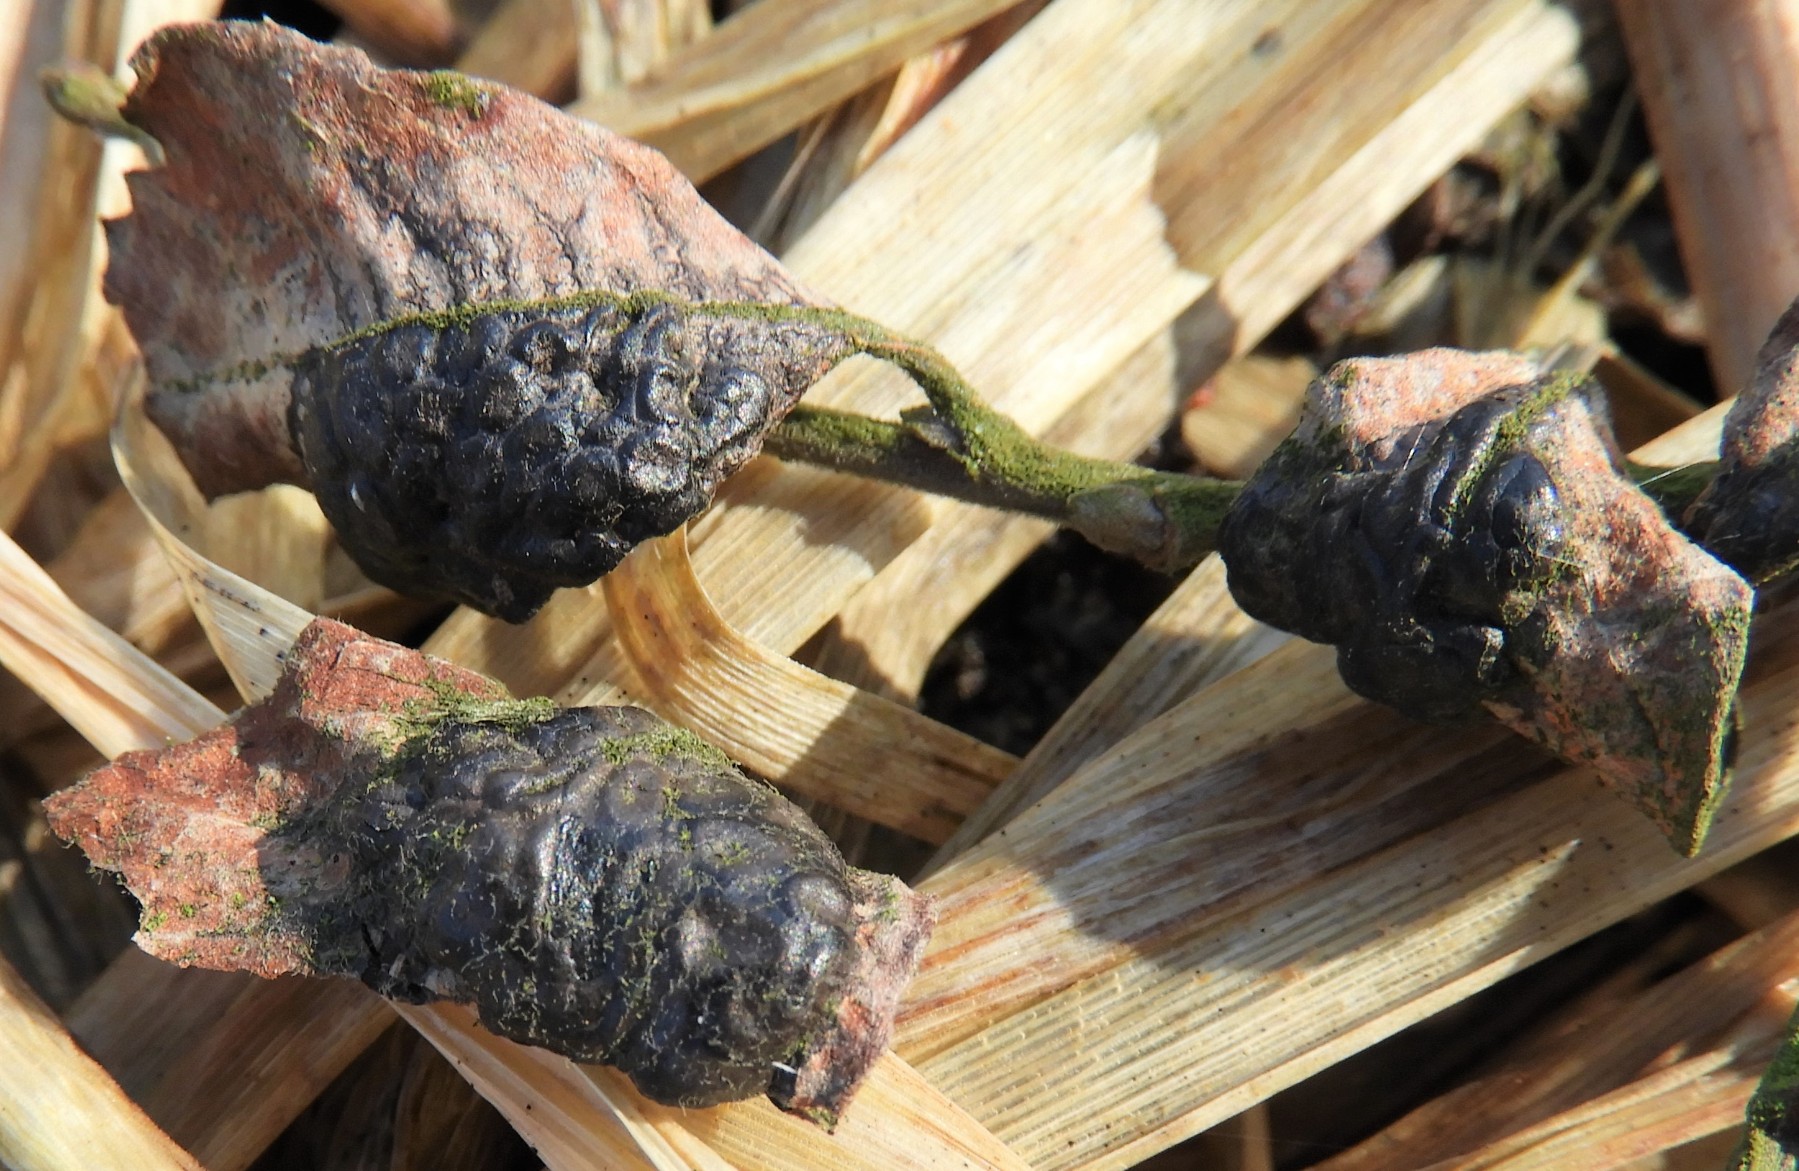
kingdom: Fungi
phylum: Ascomycota
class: Leotiomycetes
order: Rhytismatales
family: Rhytismataceae
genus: Rhytisma
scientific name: Rhytisma salicinum
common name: pile-rynkeplet
